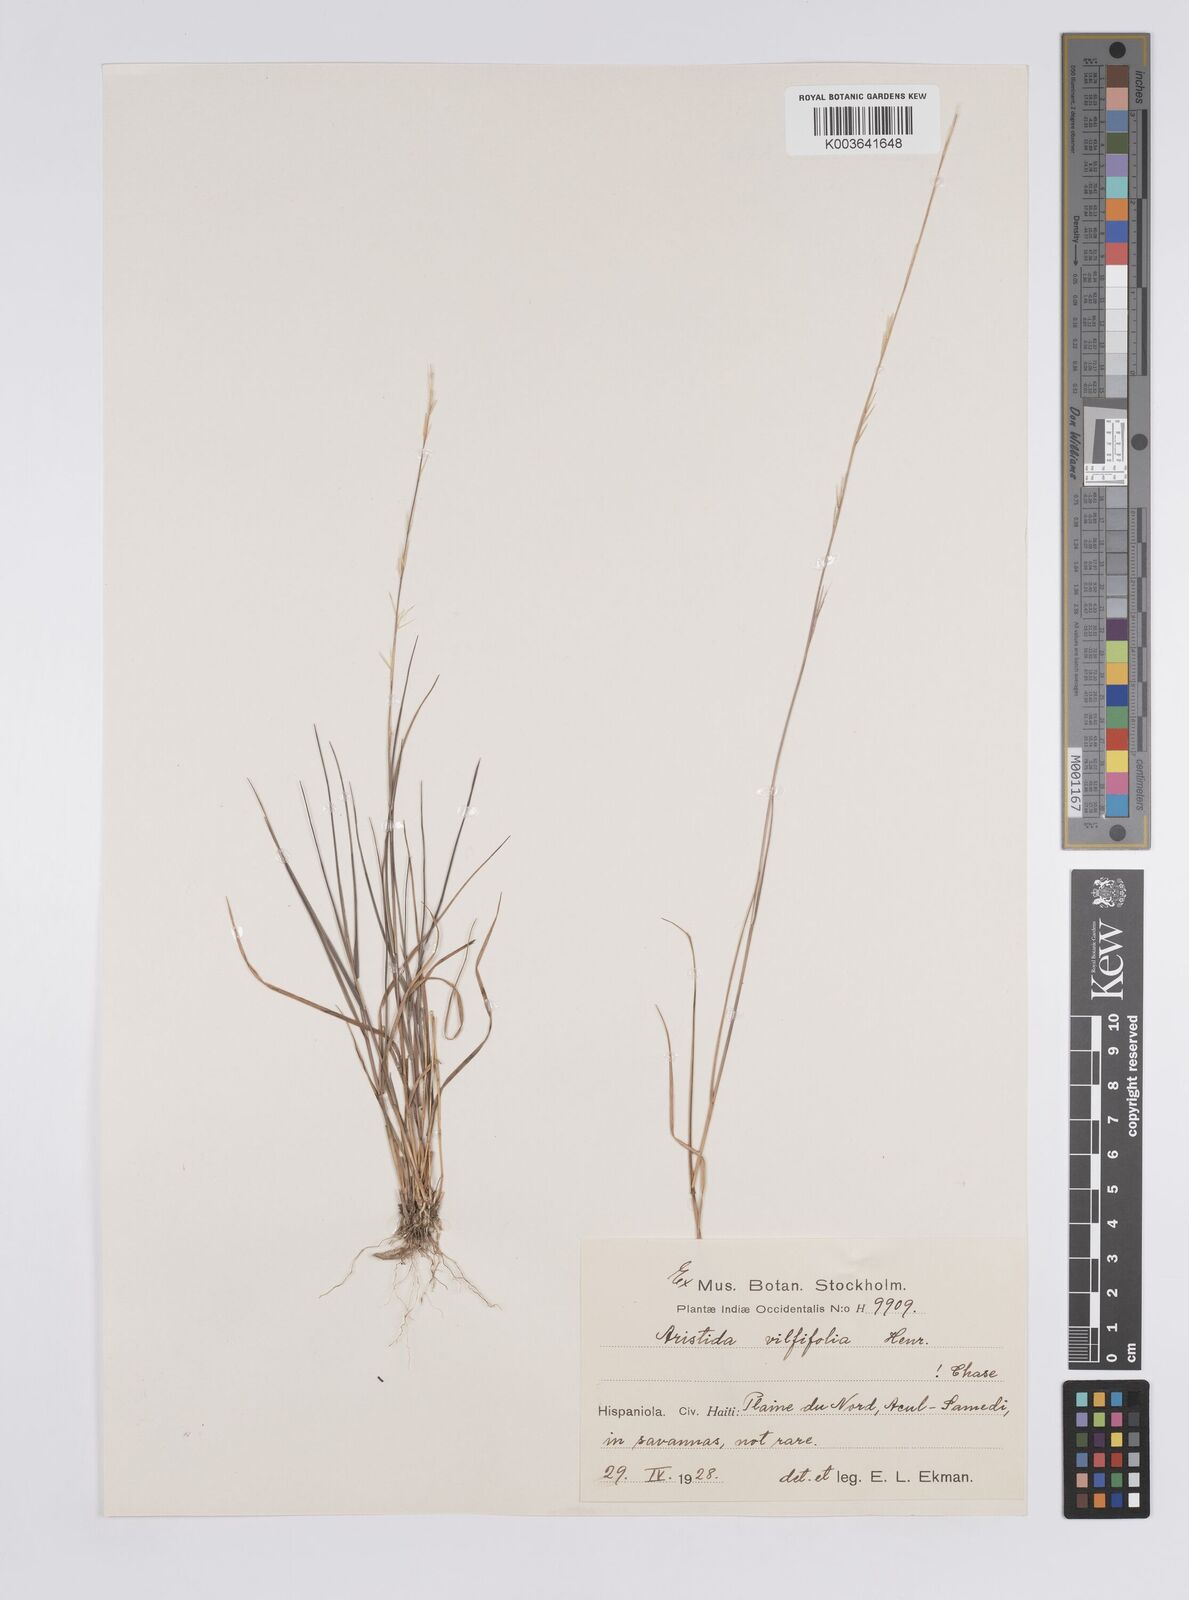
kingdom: Plantae
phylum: Tracheophyta
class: Liliopsida
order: Poales
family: Poaceae
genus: Aristida
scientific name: Aristida vilfifolia
